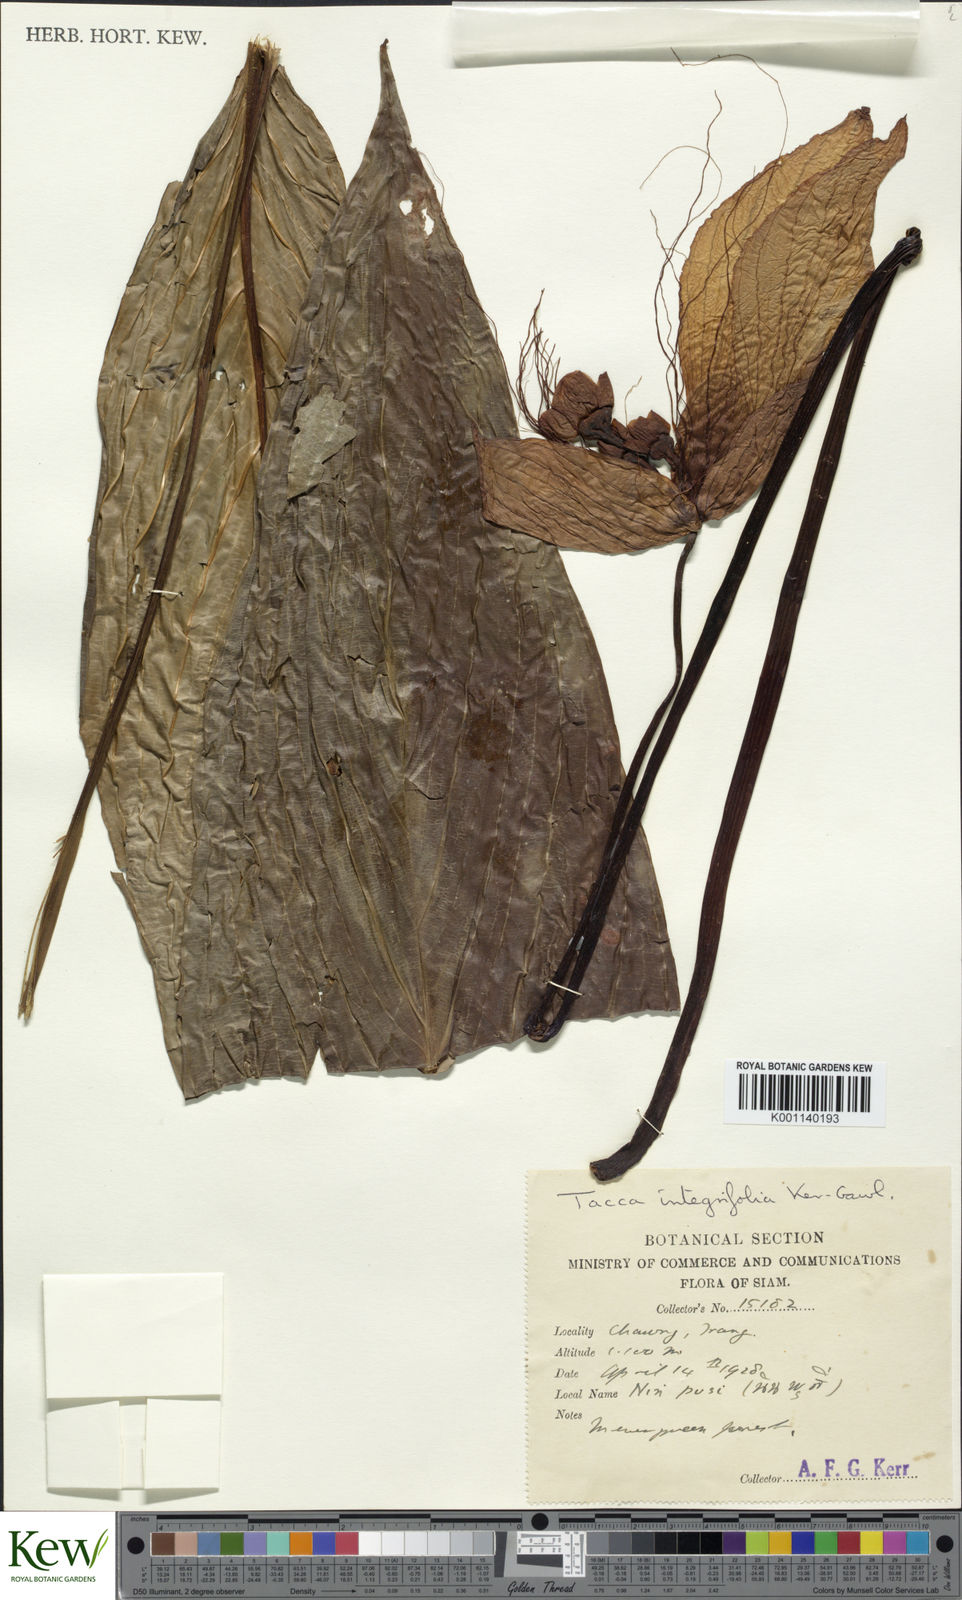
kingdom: Plantae
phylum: Tracheophyta
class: Liliopsida
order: Dioscoreales
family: Dioscoreaceae
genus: Tacca
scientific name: Tacca integrifolia
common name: Batplant
